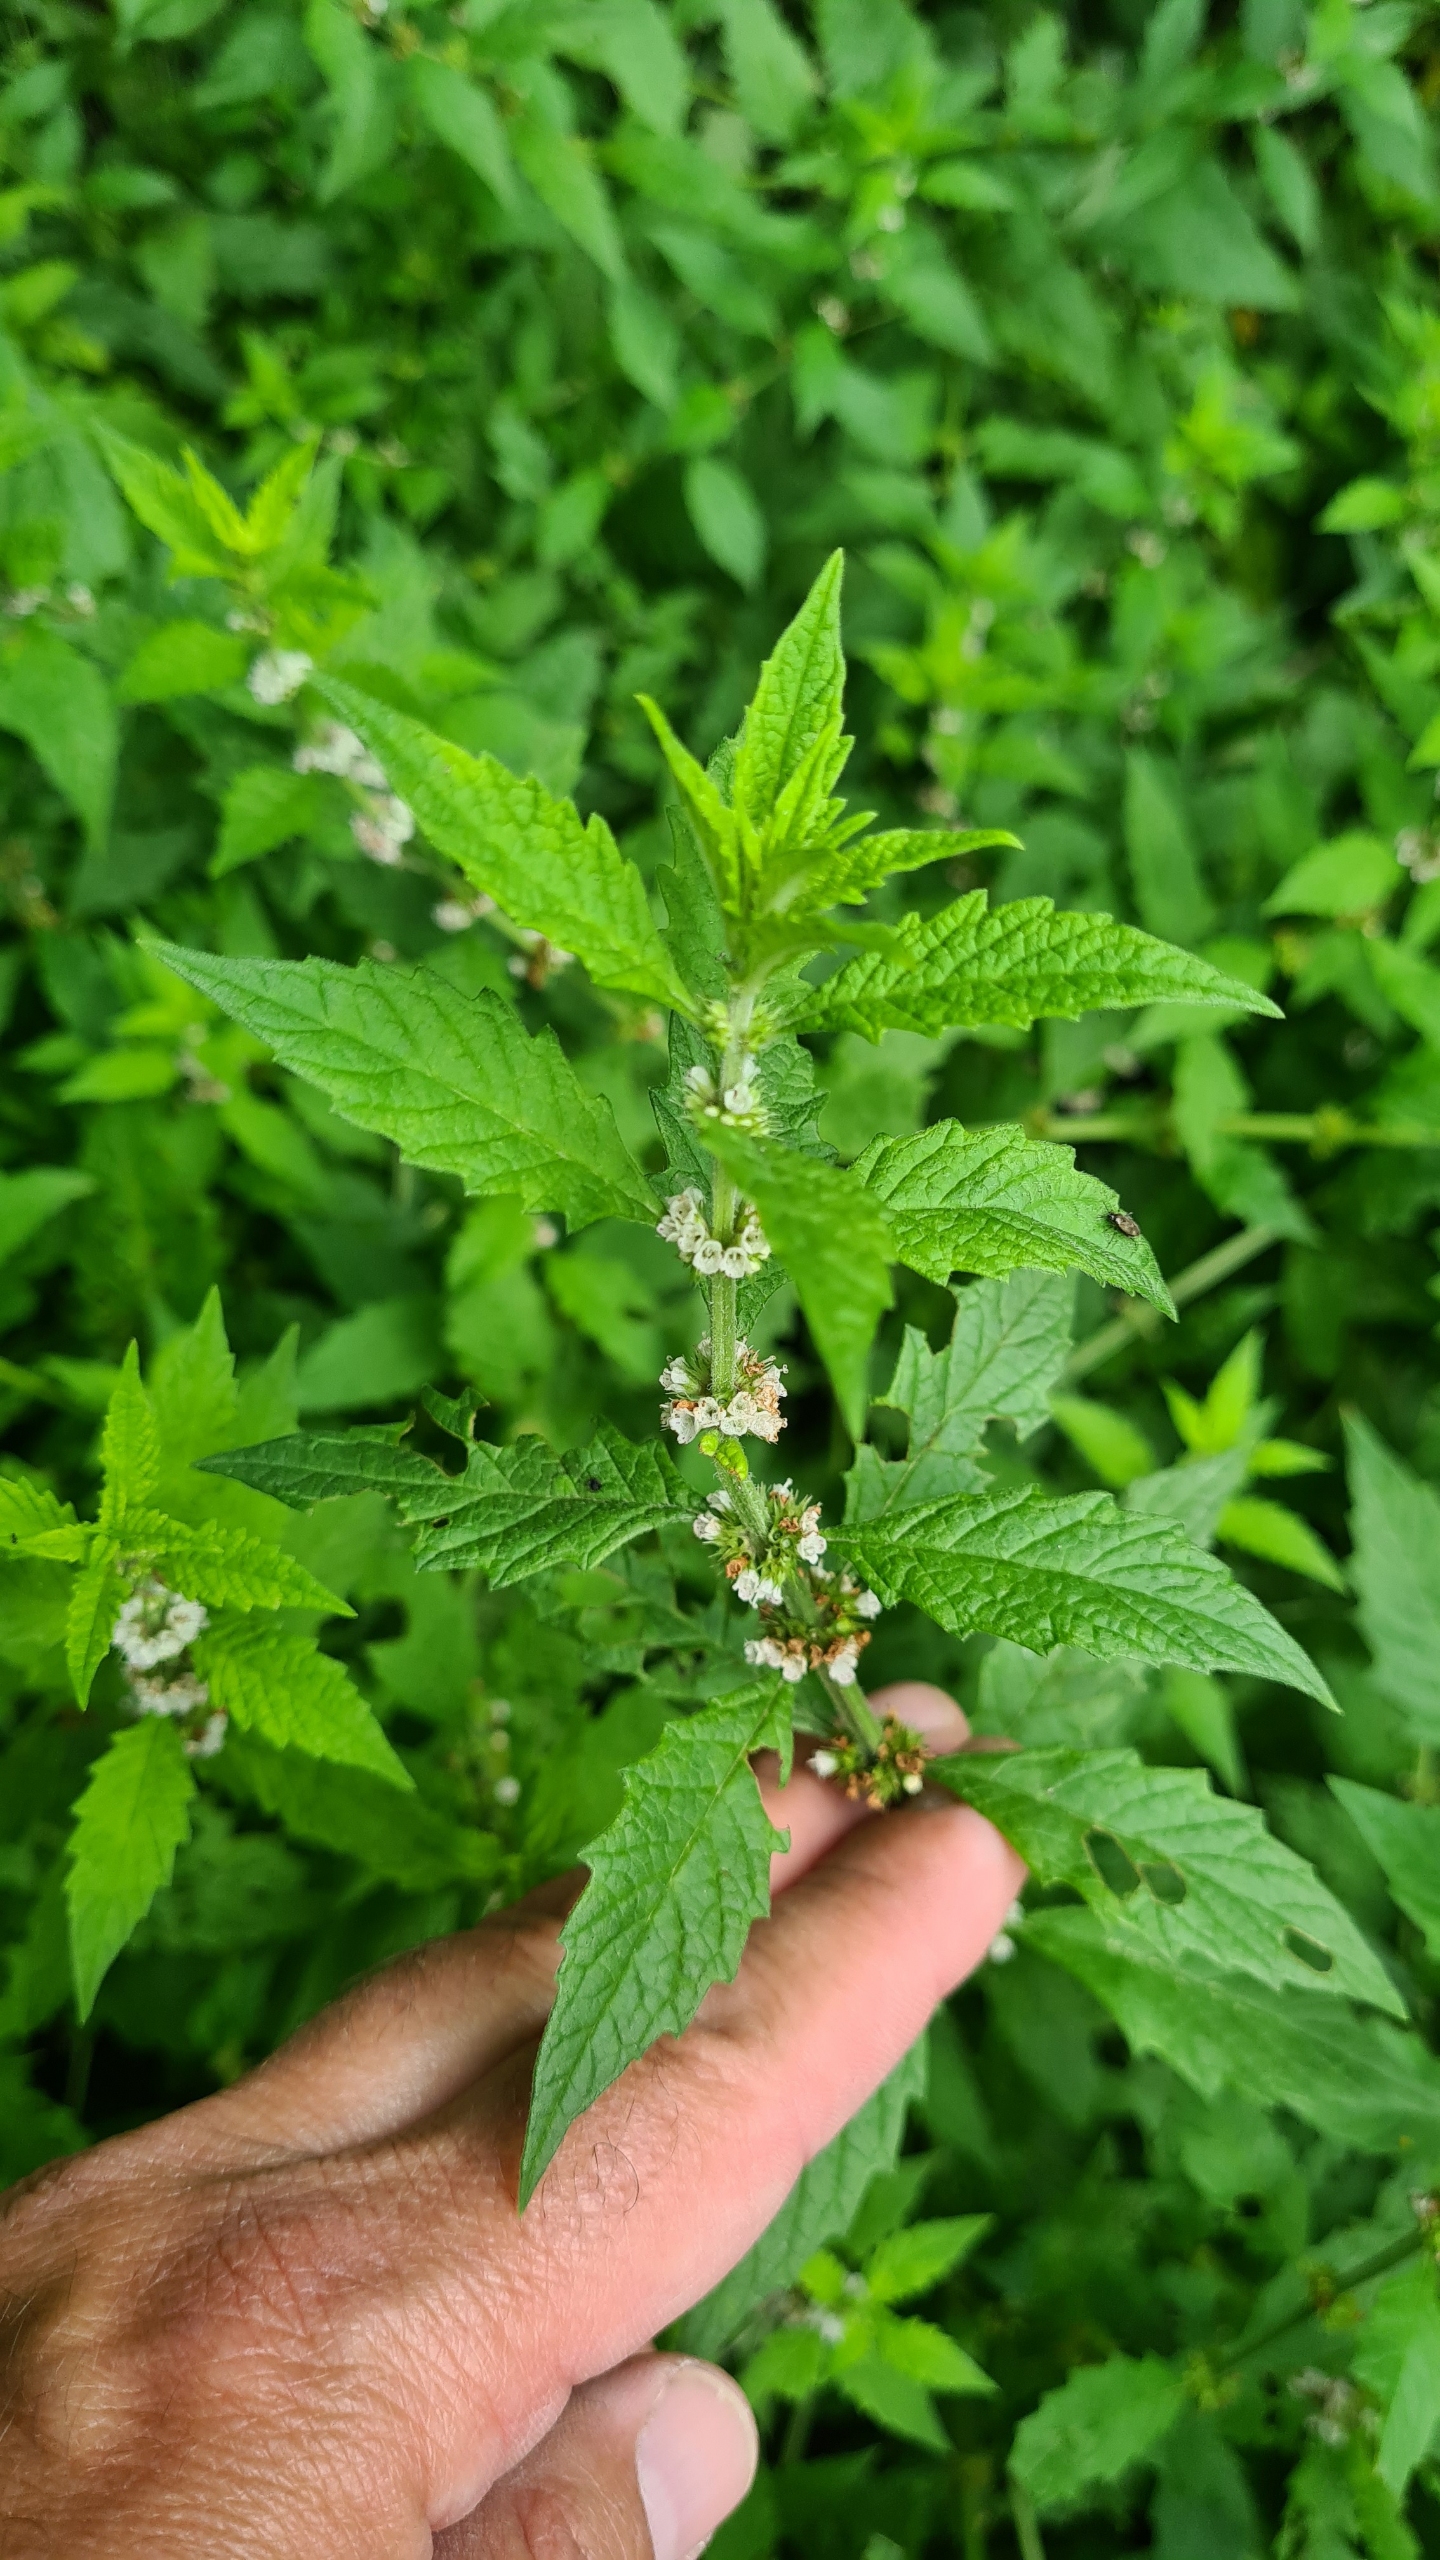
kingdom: Plantae
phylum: Tracheophyta
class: Magnoliopsida
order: Lamiales
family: Lamiaceae
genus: Lycopus
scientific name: Lycopus europaeus
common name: Sværtevæld
